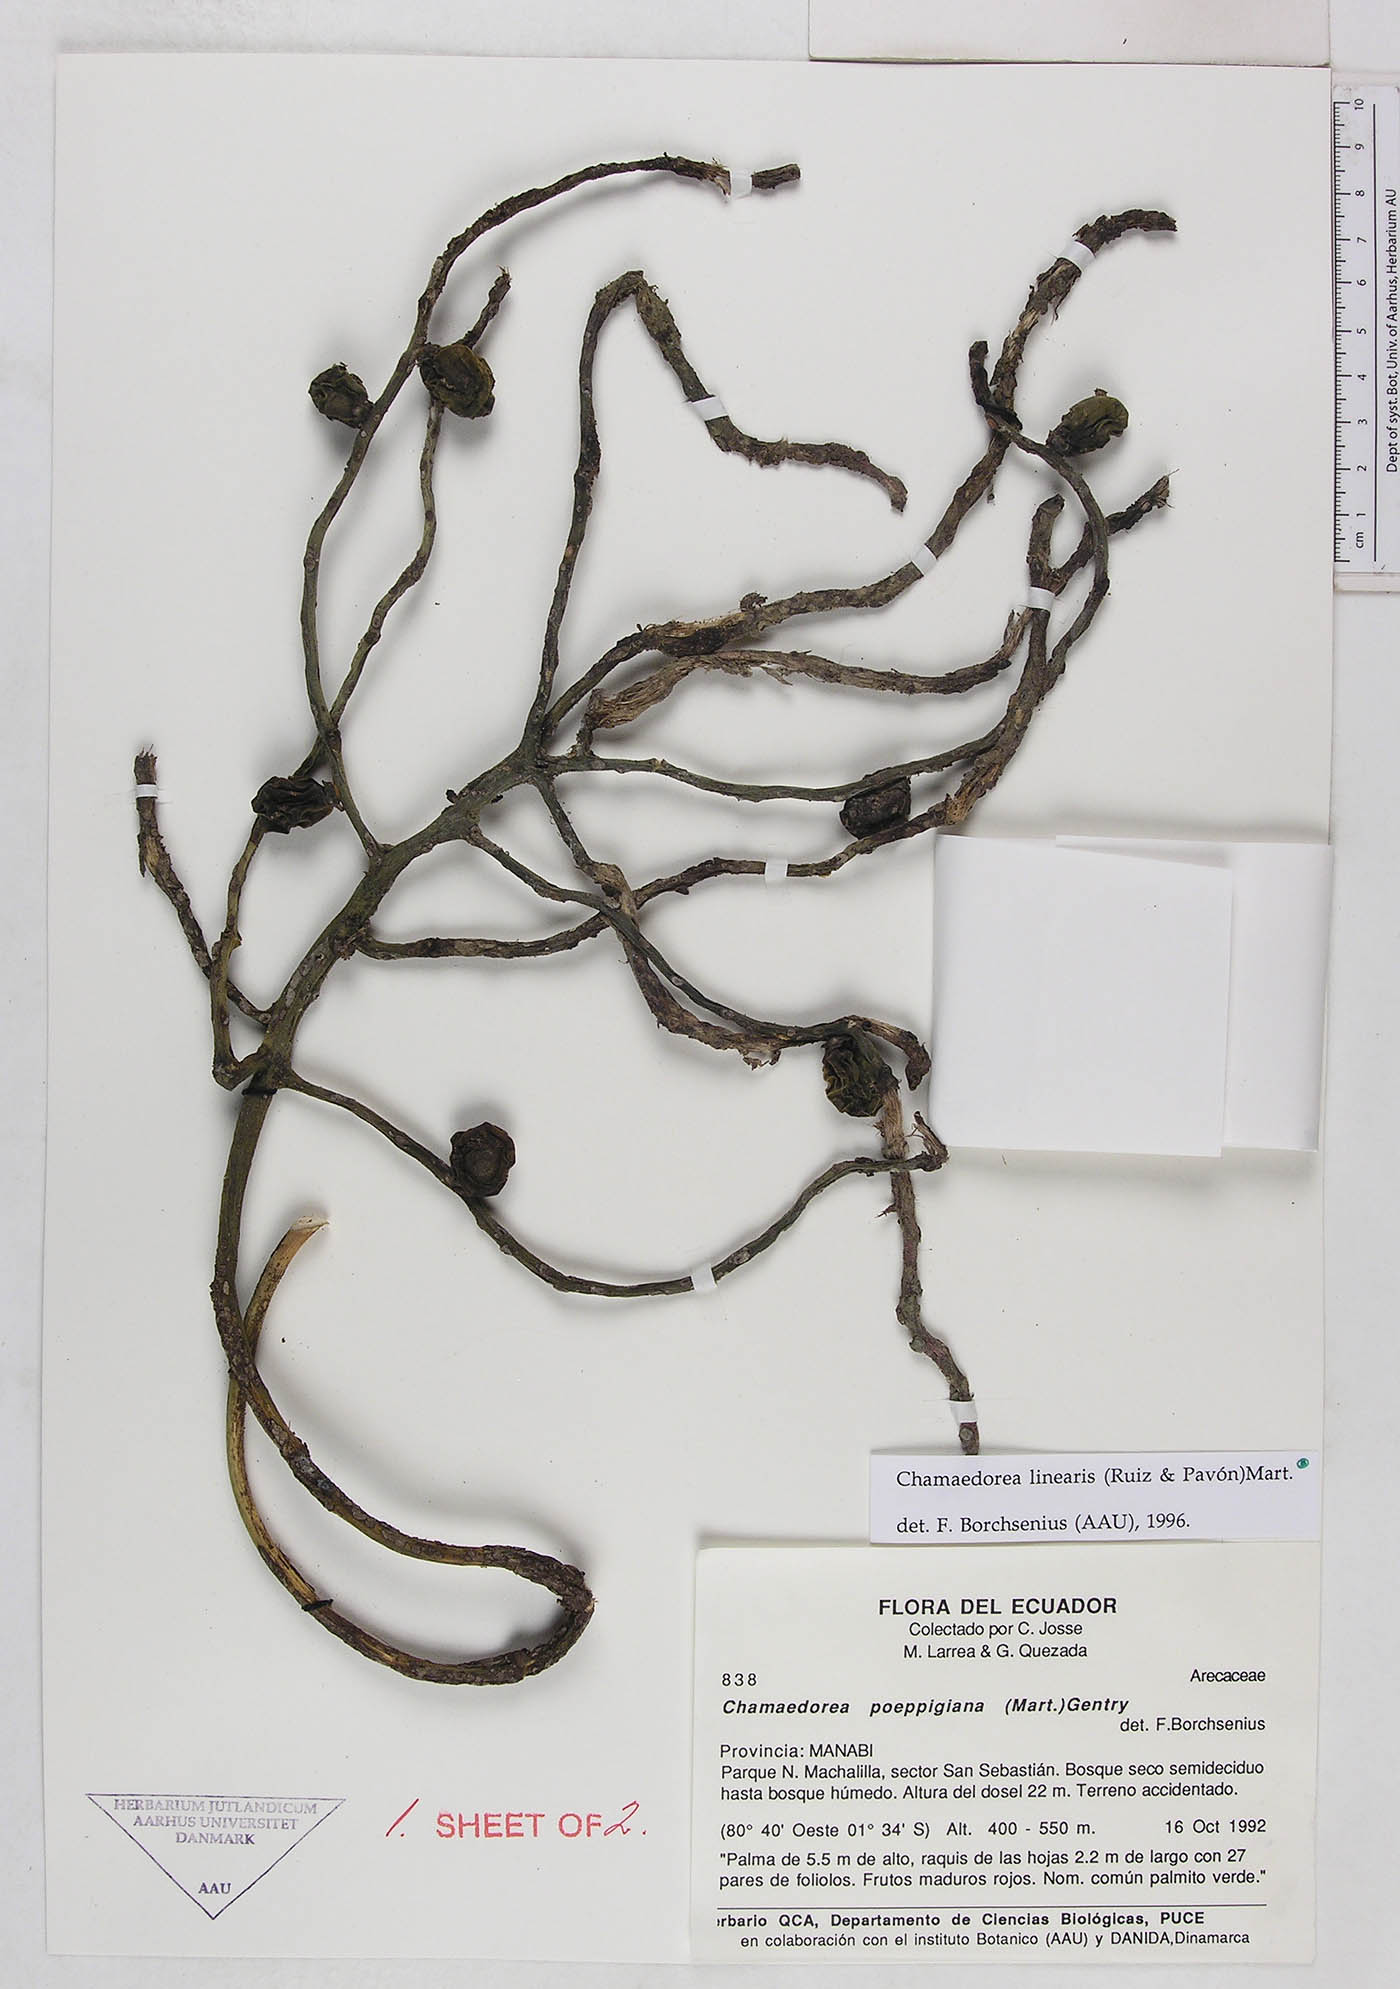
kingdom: Plantae
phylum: Tracheophyta
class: Liliopsida
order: Arecales
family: Arecaceae
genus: Chamaedorea
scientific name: Chamaedorea linearis
